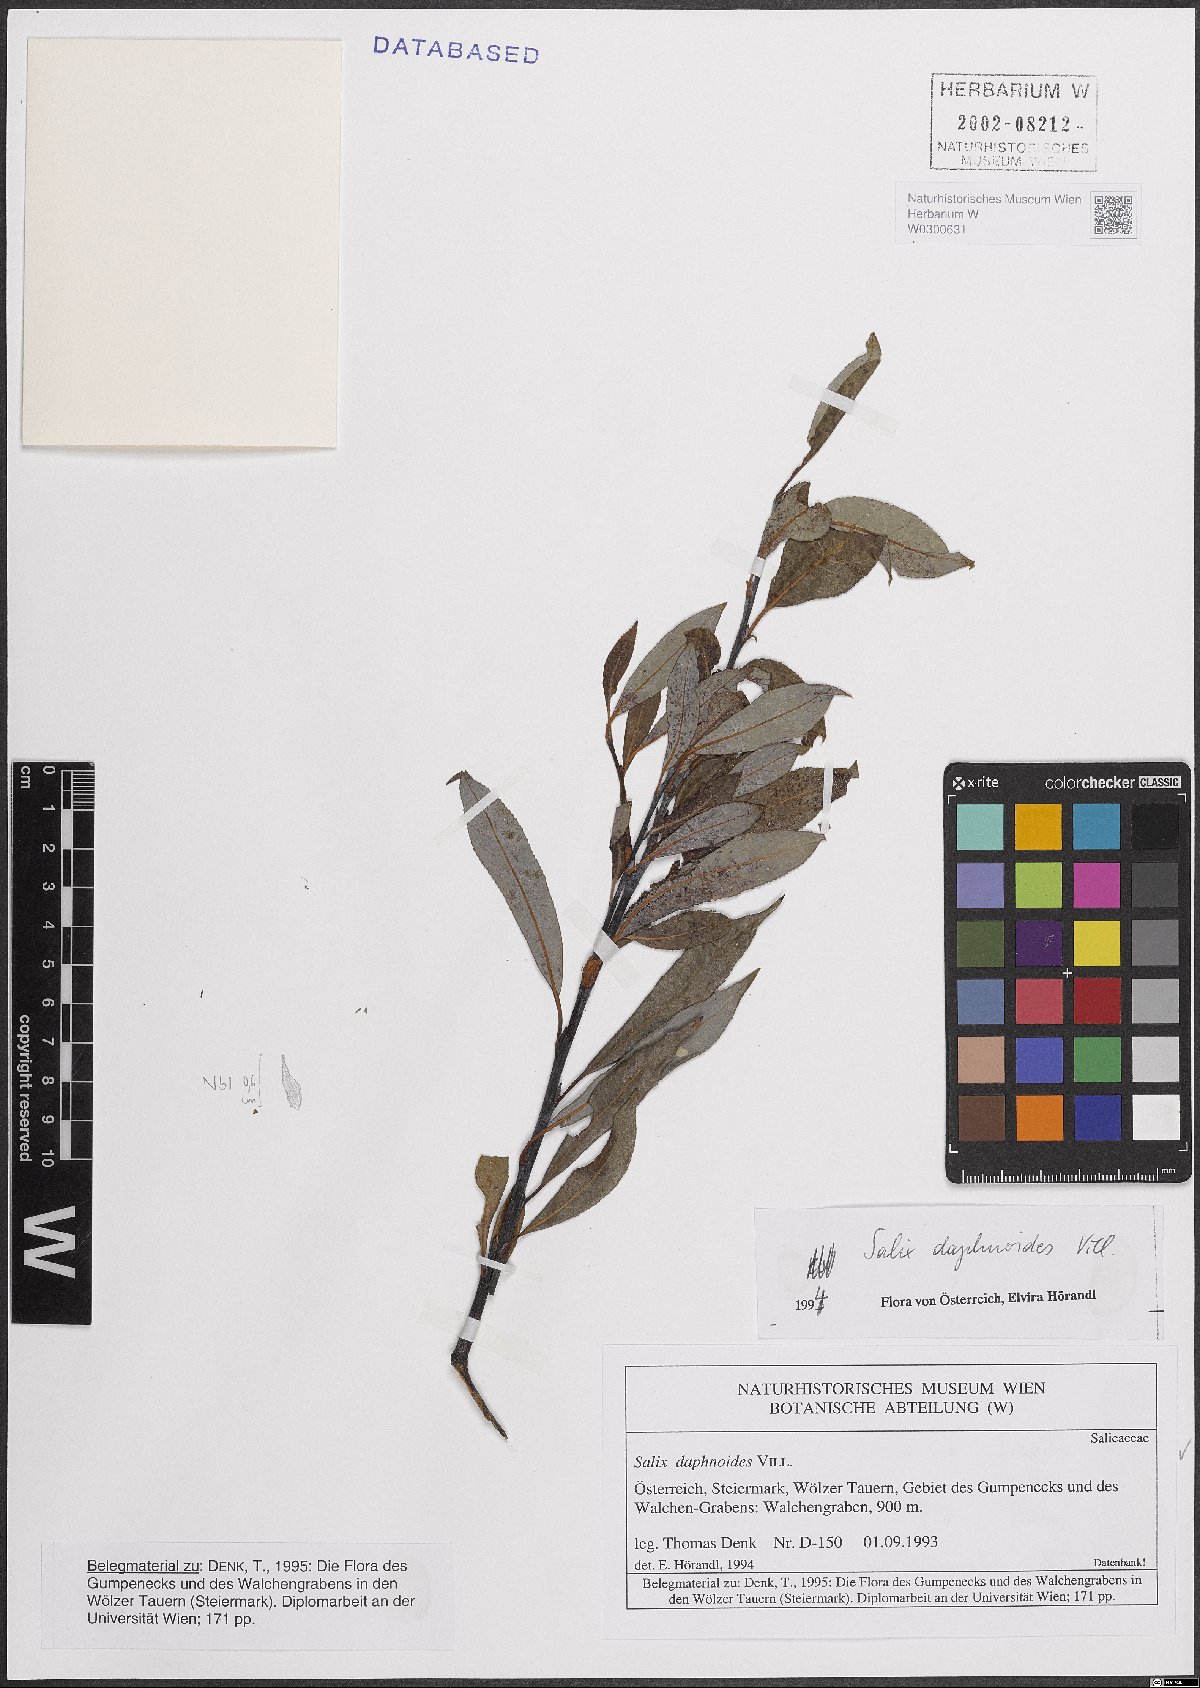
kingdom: Plantae
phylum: Tracheophyta
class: Magnoliopsida
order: Malpighiales
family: Salicaceae
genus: Salix
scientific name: Salix daphnoides
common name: European violet-willow
